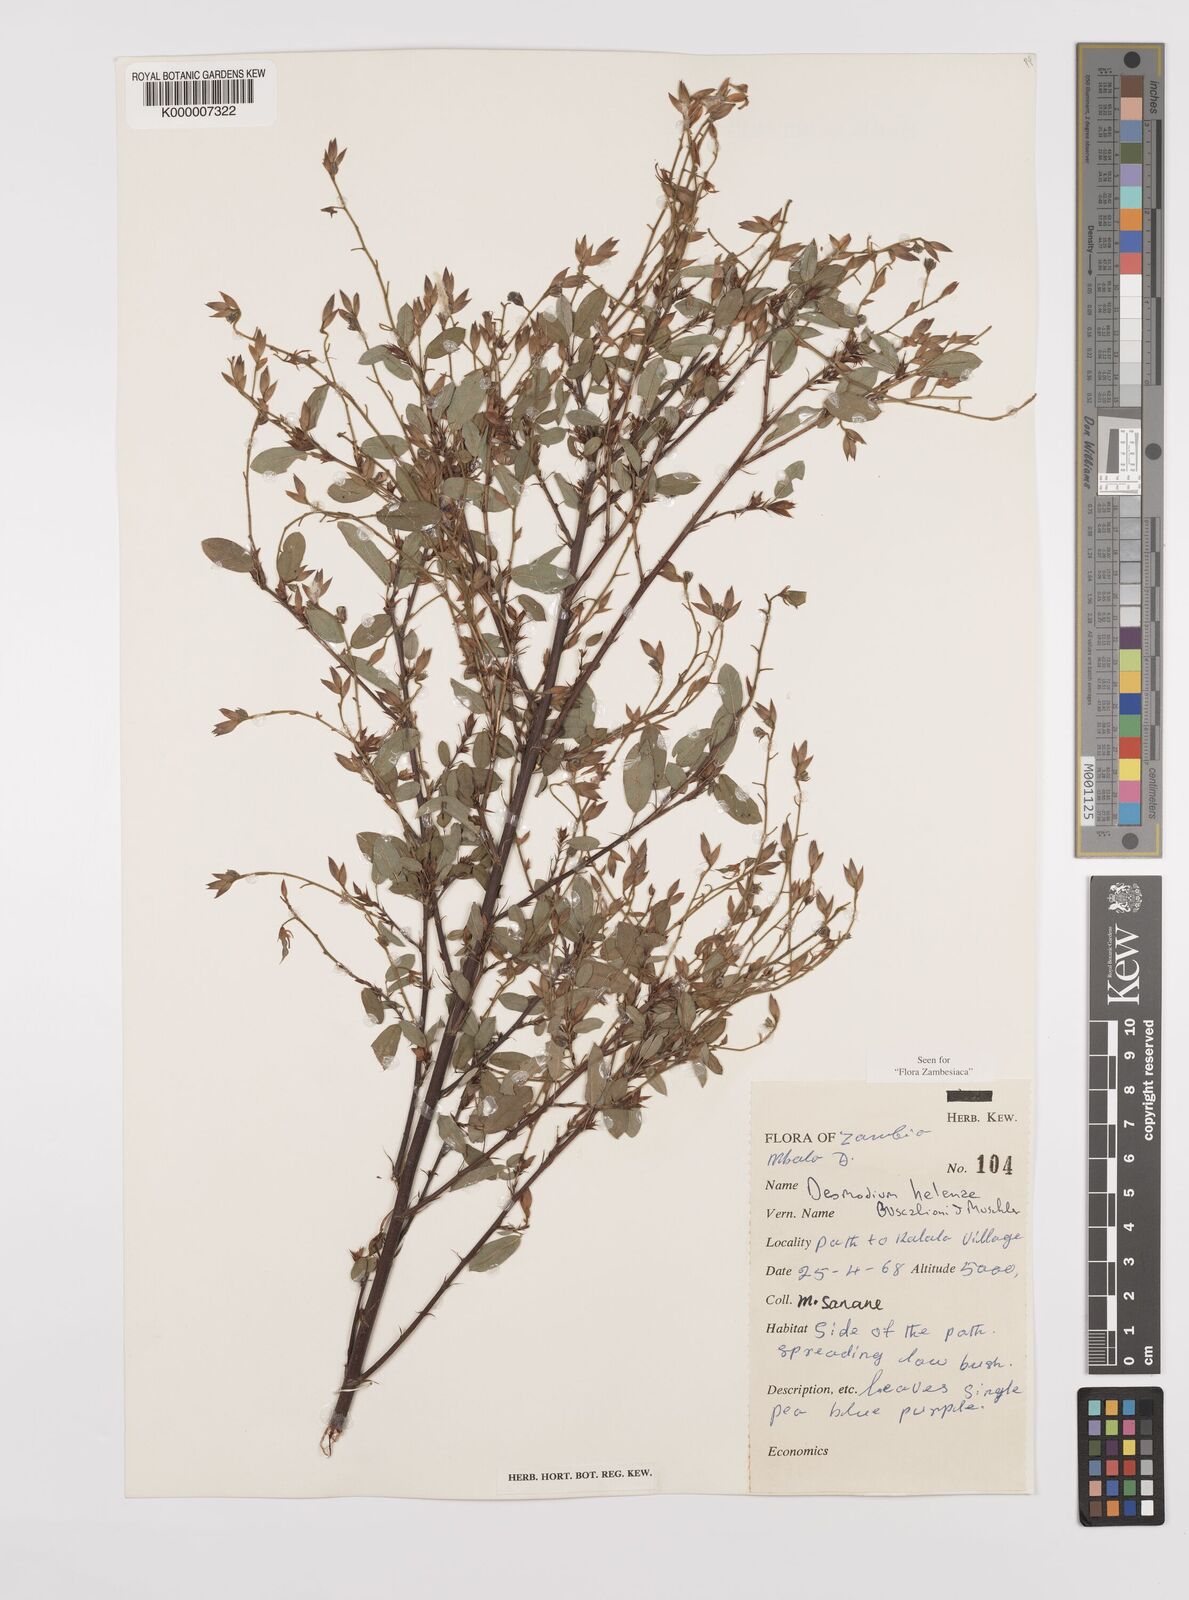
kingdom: Plantae
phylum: Tracheophyta
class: Magnoliopsida
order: Fabales
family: Fabaceae
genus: Grona
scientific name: Grona helenae
